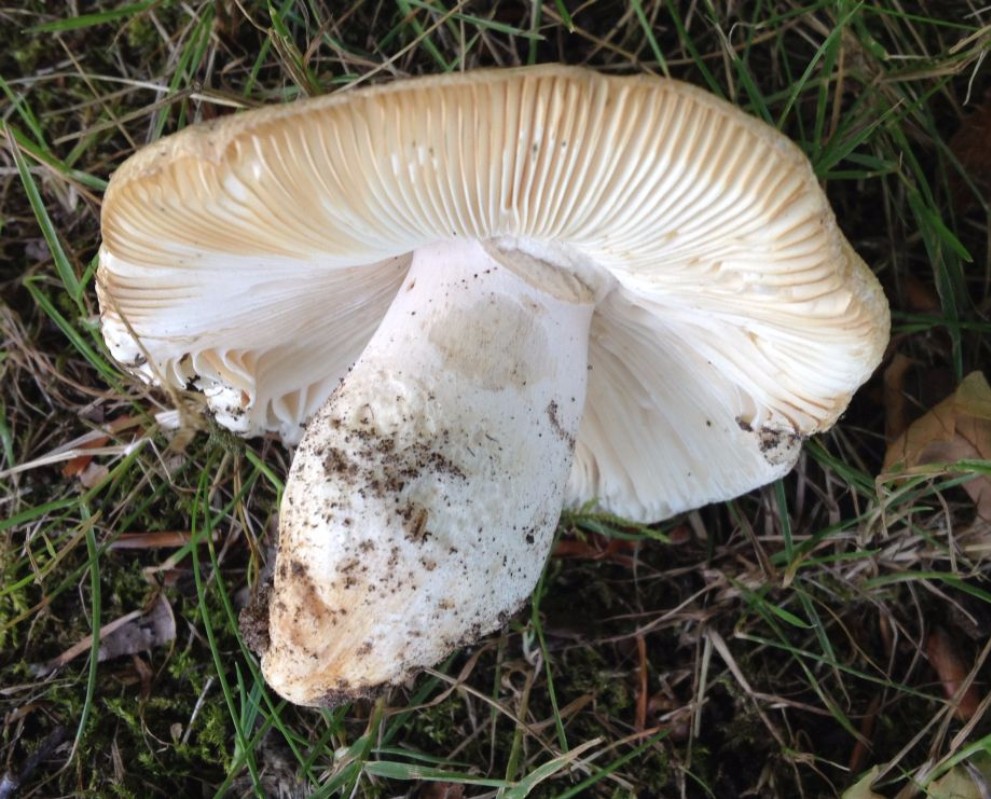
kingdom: Fungi
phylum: Basidiomycota
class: Agaricomycetes
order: Russulales
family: Russulaceae
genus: Russula
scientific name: Russula virescens
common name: spanskgrøn skørhat
